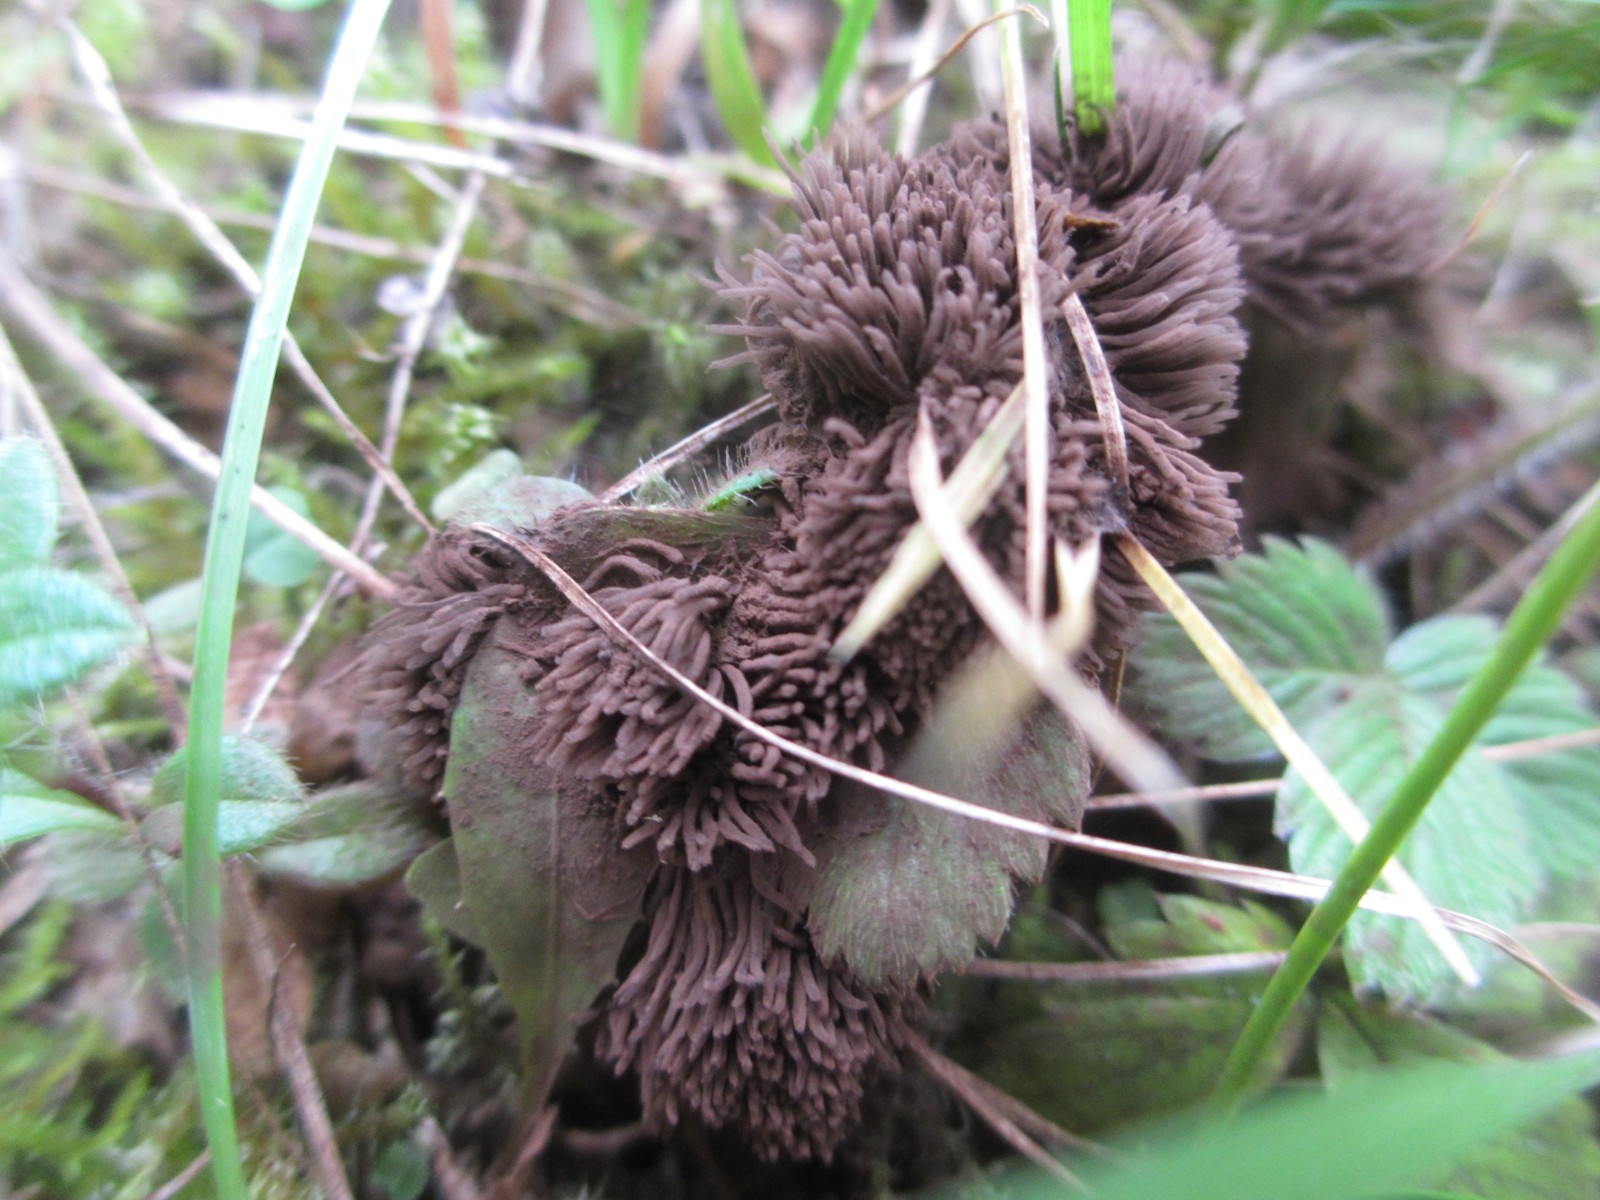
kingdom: Protozoa
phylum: Mycetozoa
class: Myxomycetes
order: Stemonitidales
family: Stemonitidaceae
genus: Stemonitis
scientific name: Stemonitis
